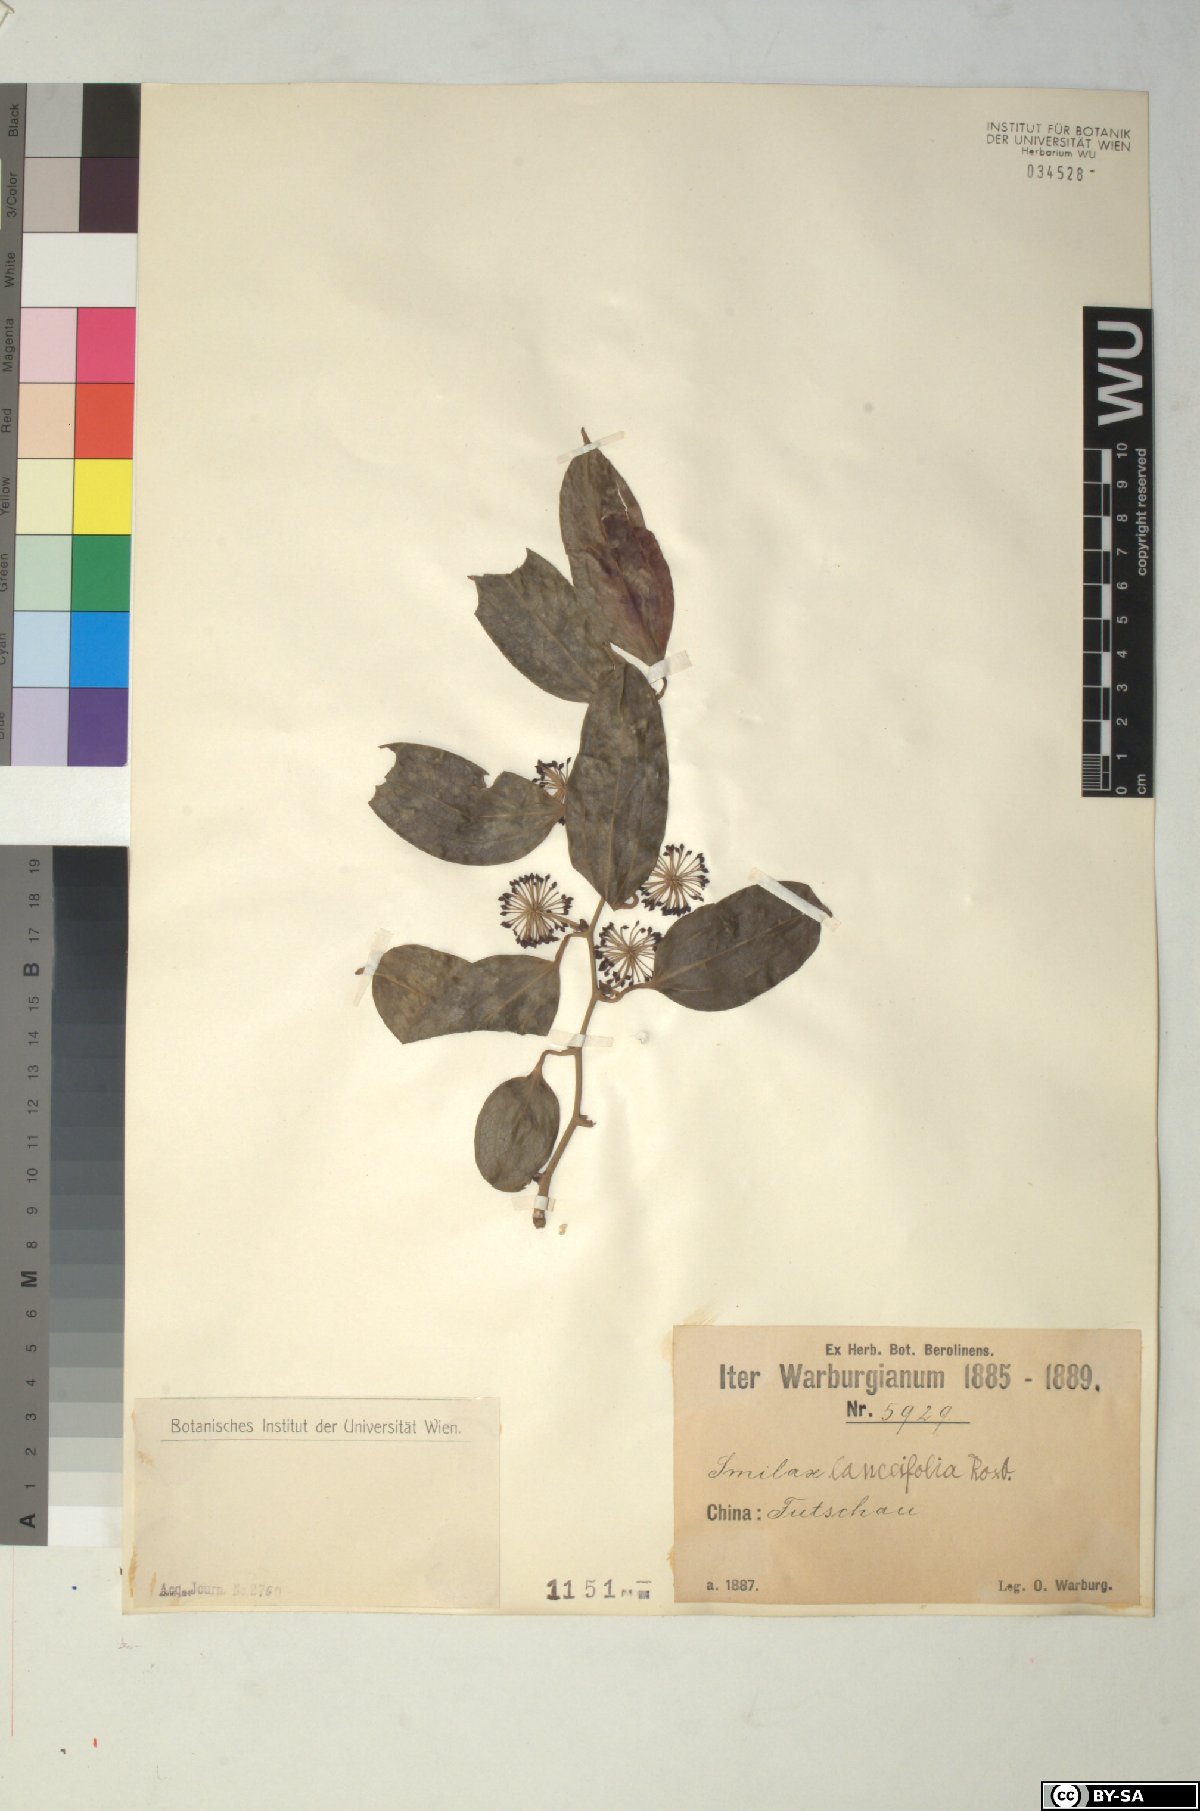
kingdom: Plantae
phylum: Tracheophyta
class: Liliopsida
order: Liliales
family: Smilacaceae
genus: Smilax
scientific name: Smilax lanceifolia
